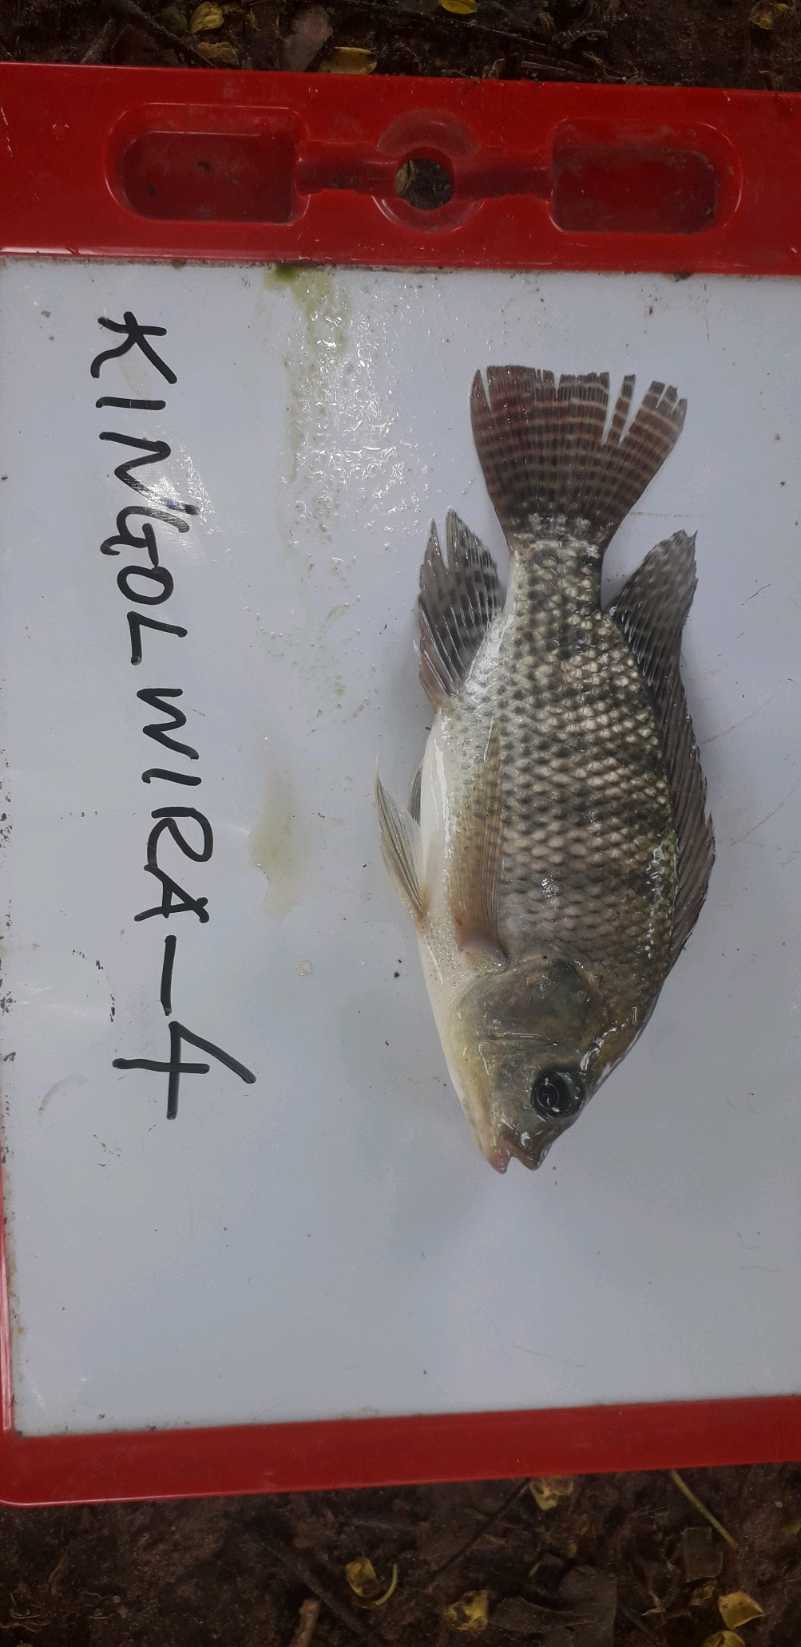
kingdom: Animalia
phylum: Chordata
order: Perciformes
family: Cichlidae
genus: Oreochromis
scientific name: Oreochromis niloticus
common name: Nile tilapia
